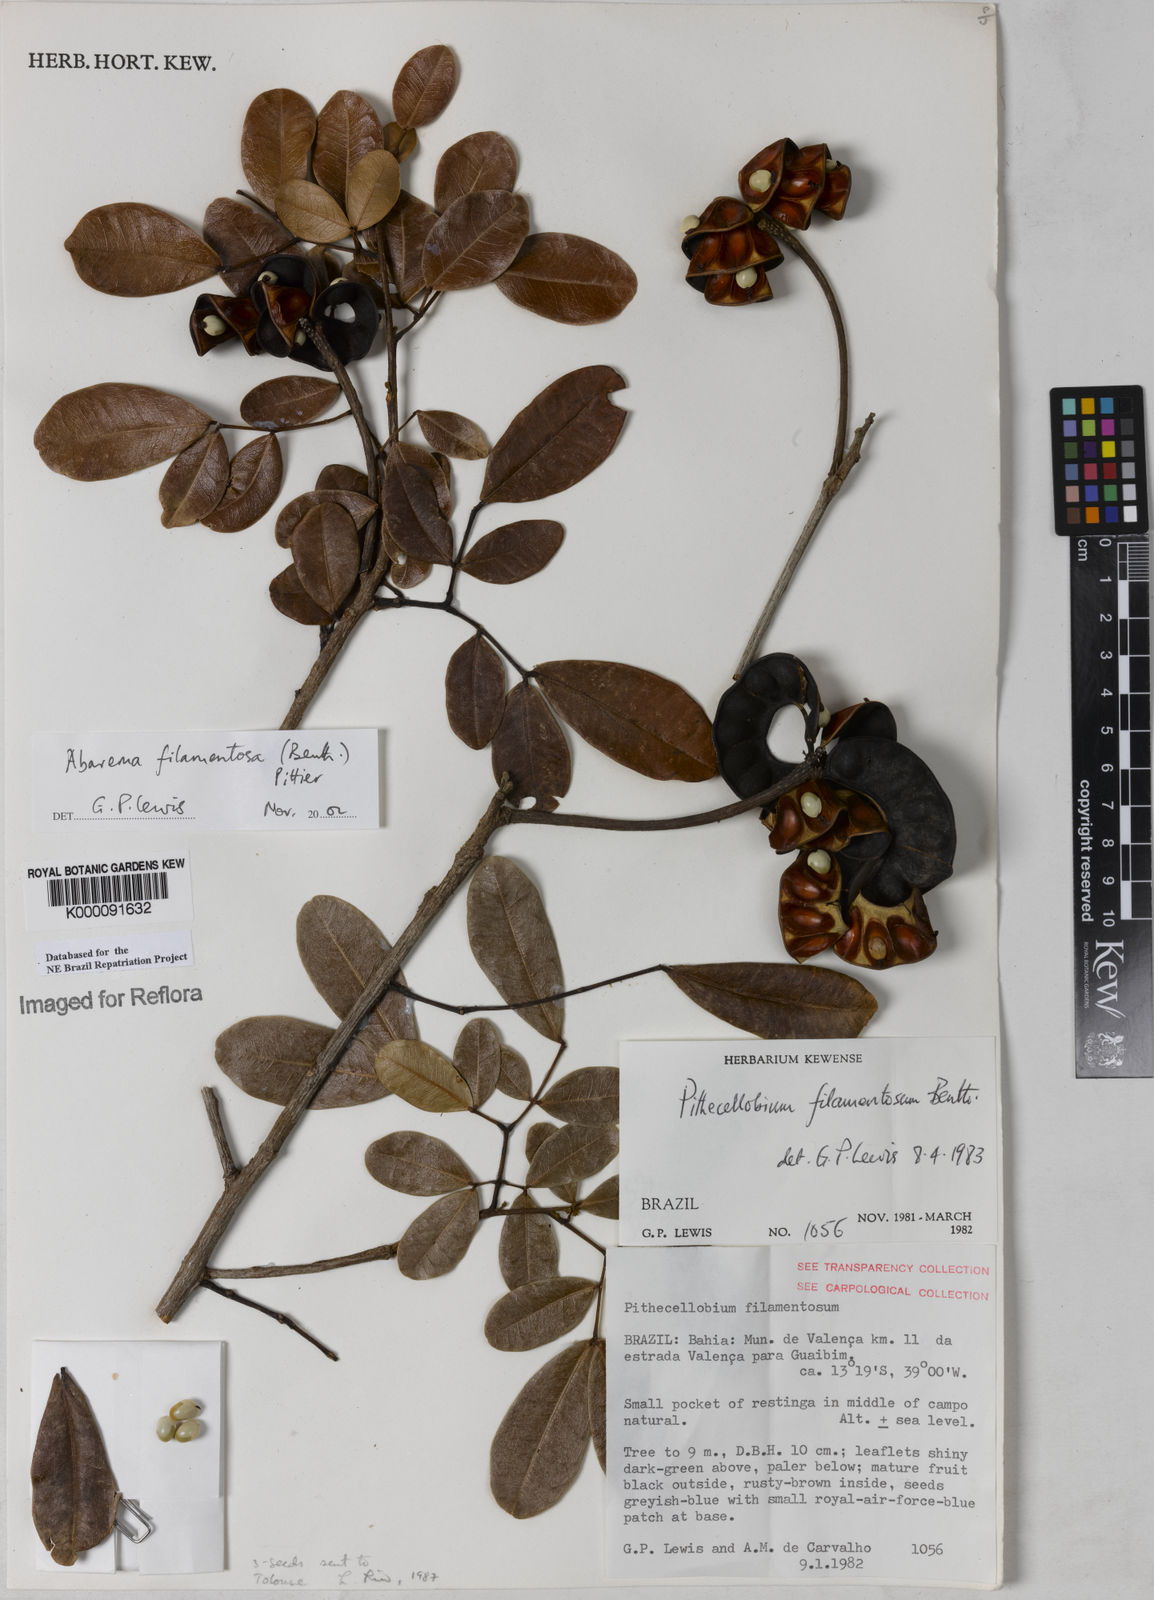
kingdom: Plantae
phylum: Tracheophyta
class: Magnoliopsida
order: Fabales
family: Fabaceae
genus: Jupunba
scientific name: Jupunba filamentosa
